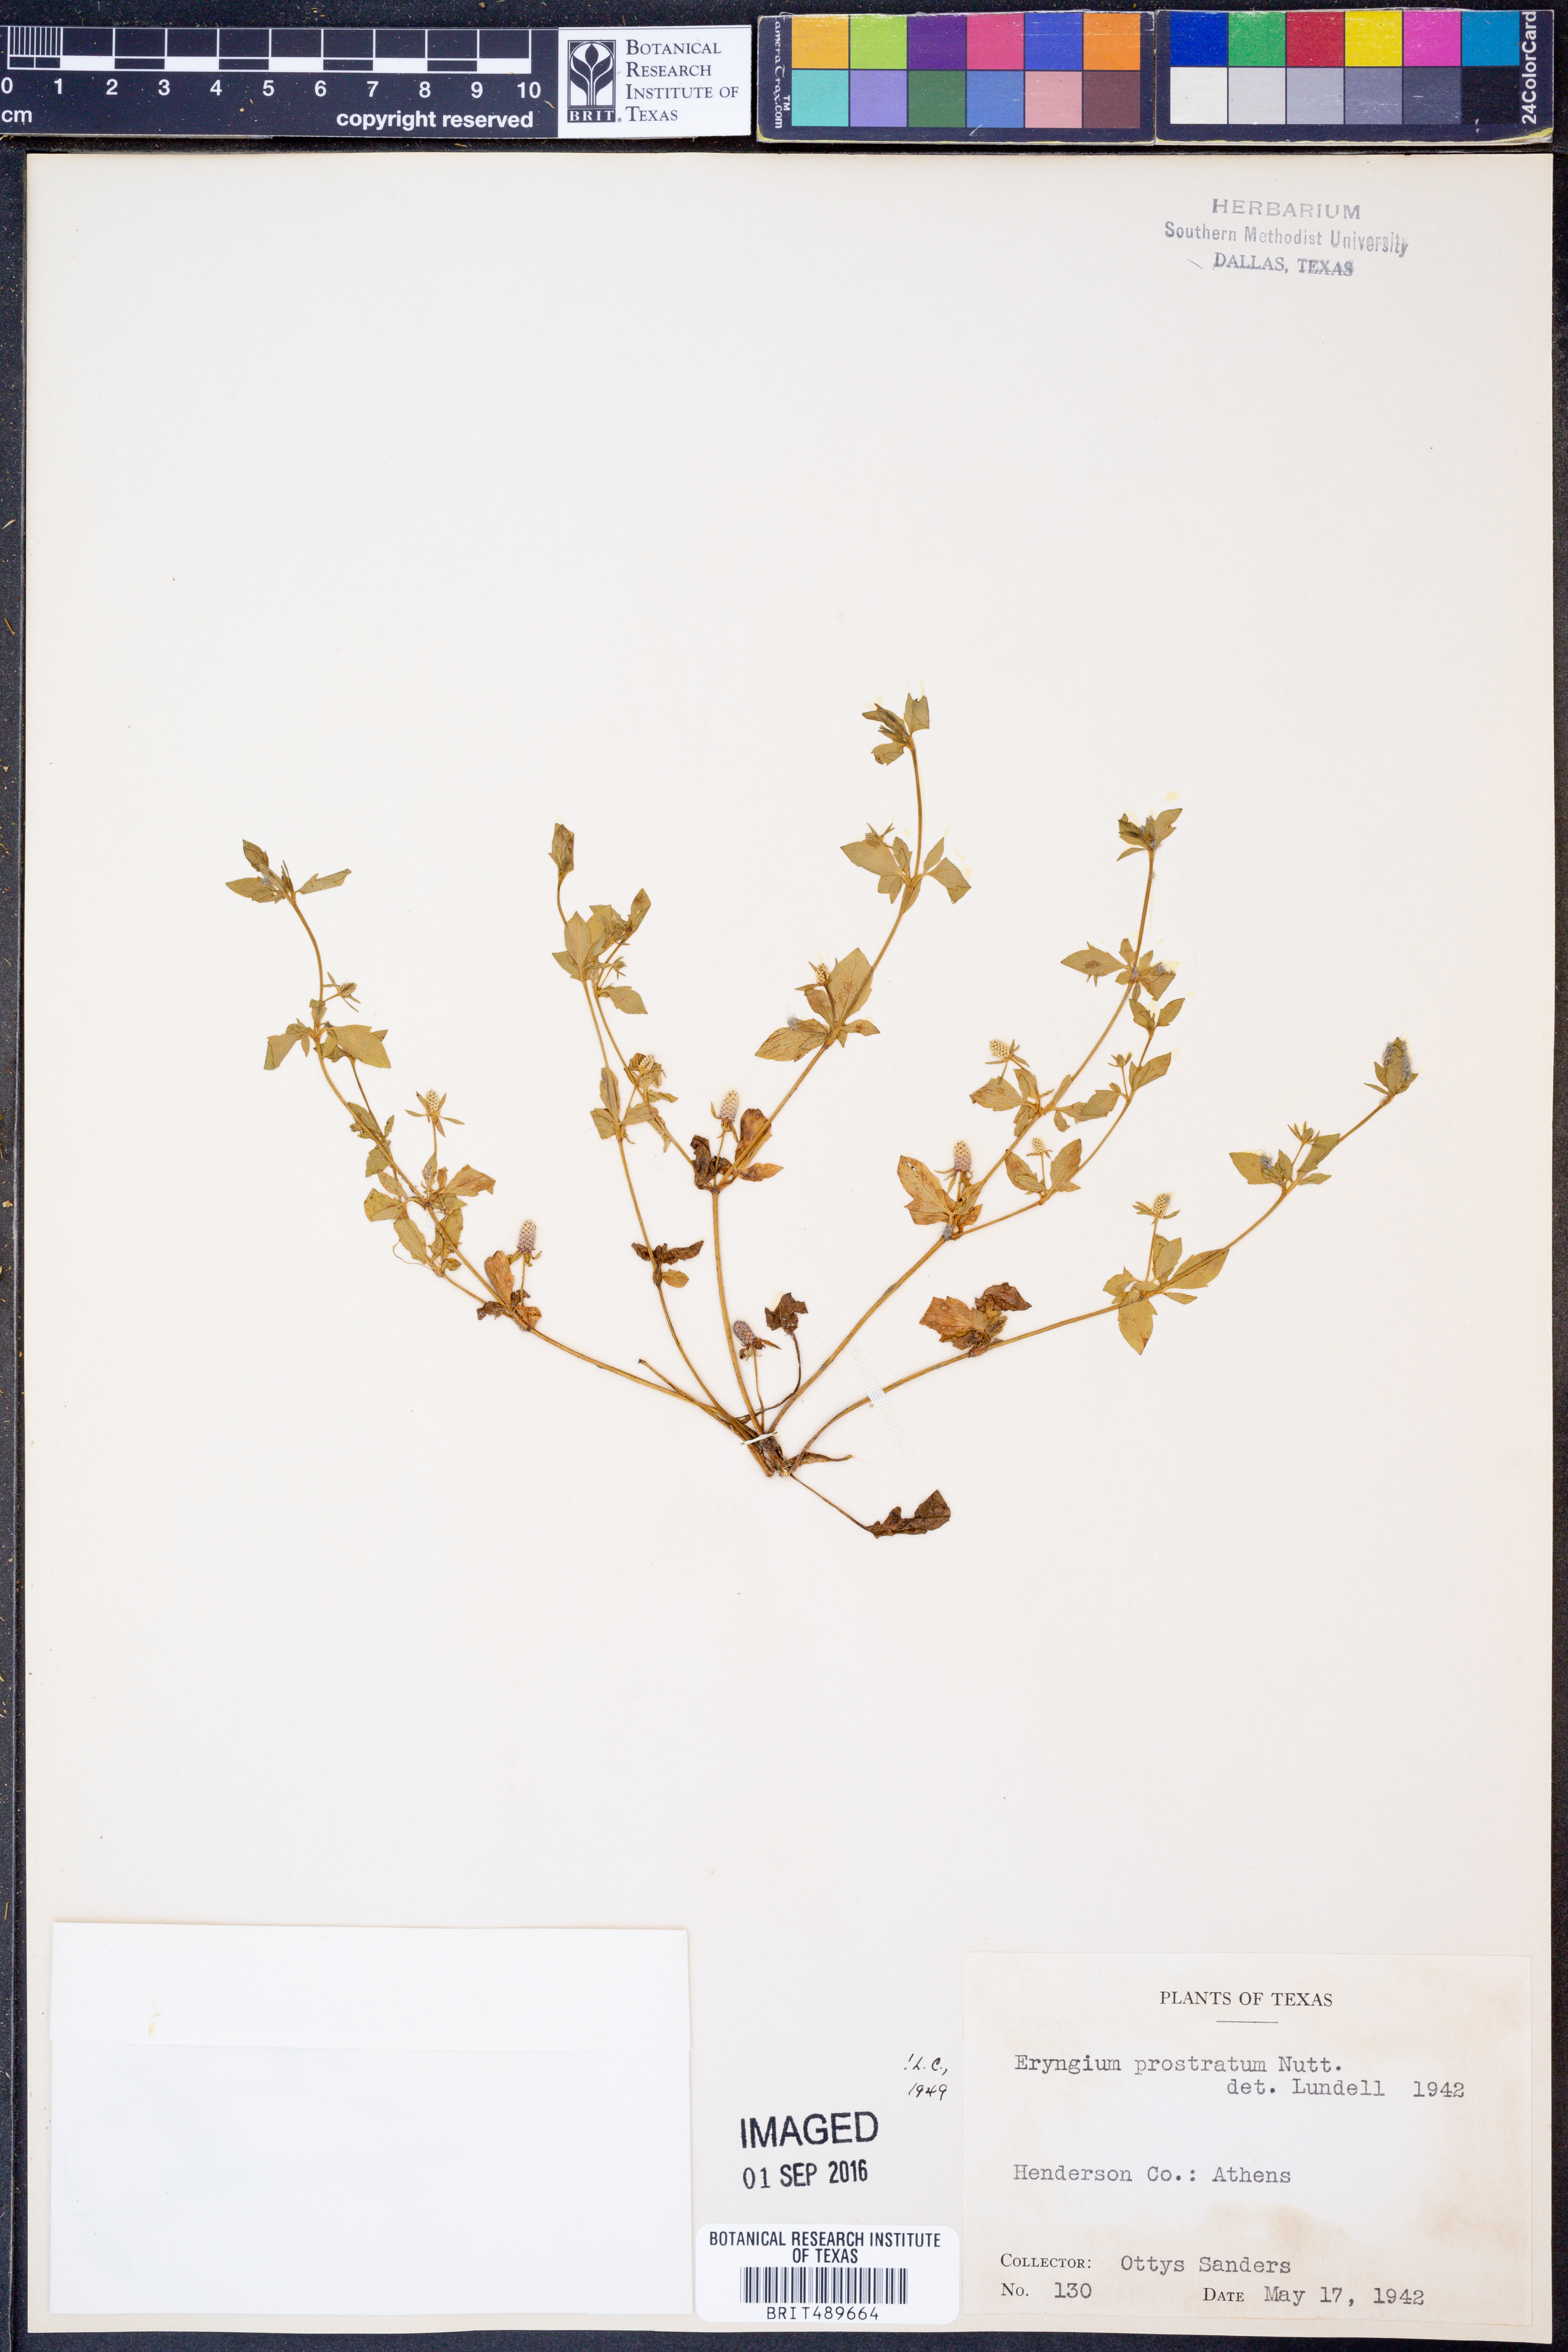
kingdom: Plantae
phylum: Tracheophyta
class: Magnoliopsida
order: Apiales
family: Apiaceae
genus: Eryngium
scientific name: Eryngium prostratum
